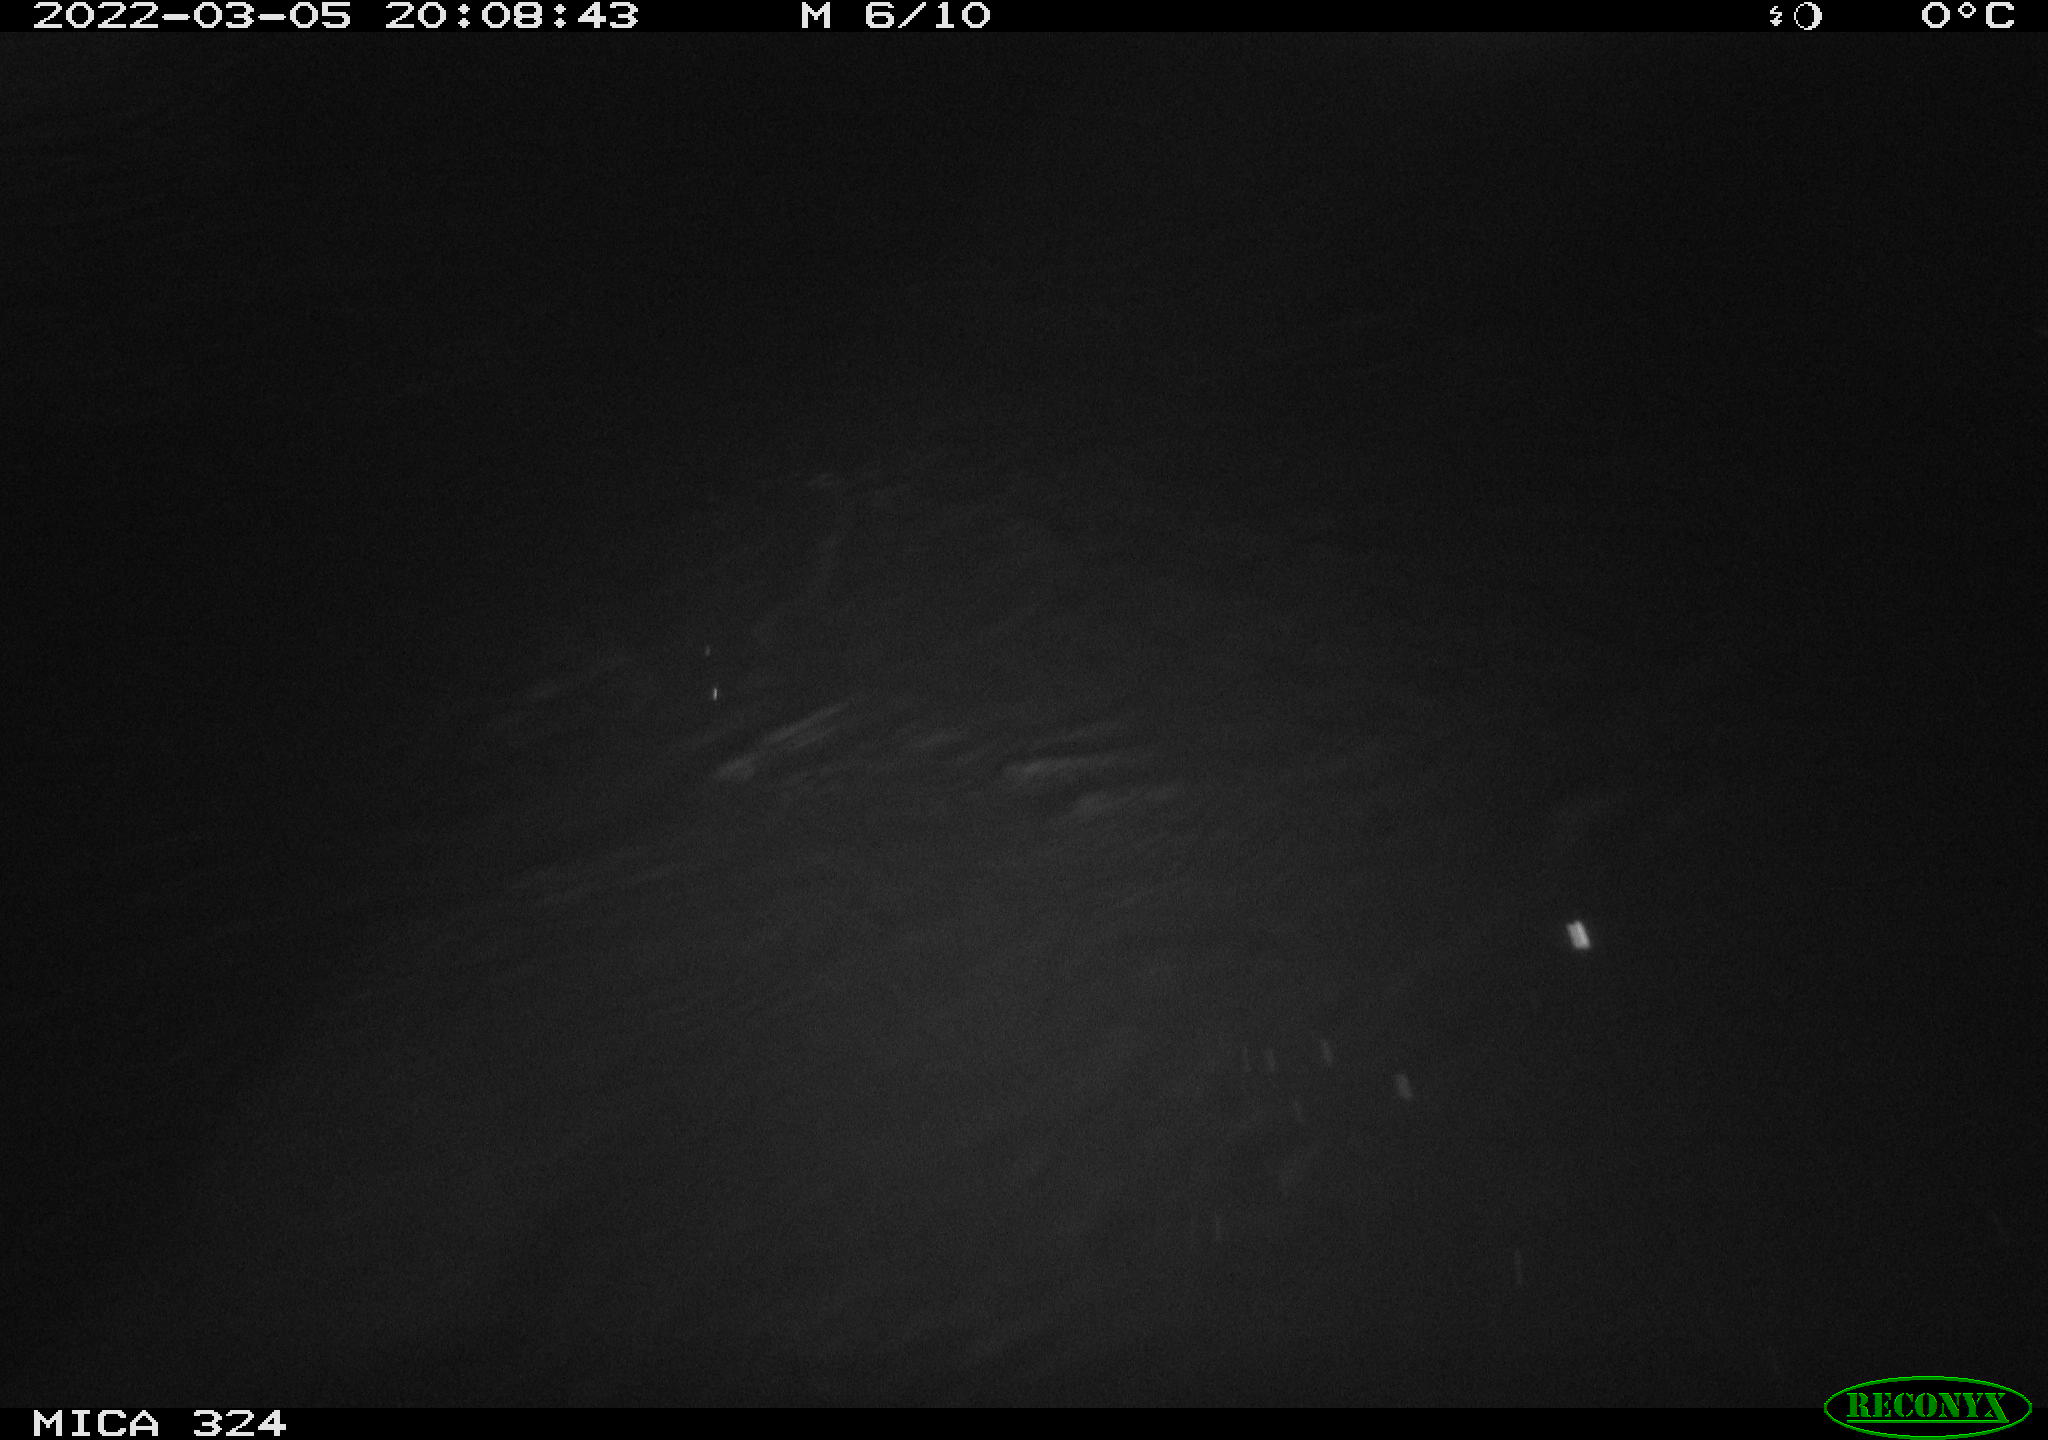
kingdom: Animalia
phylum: Chordata
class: Mammalia
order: Rodentia
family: Cricetidae
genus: Ondatra
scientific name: Ondatra zibethicus
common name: Muskrat
